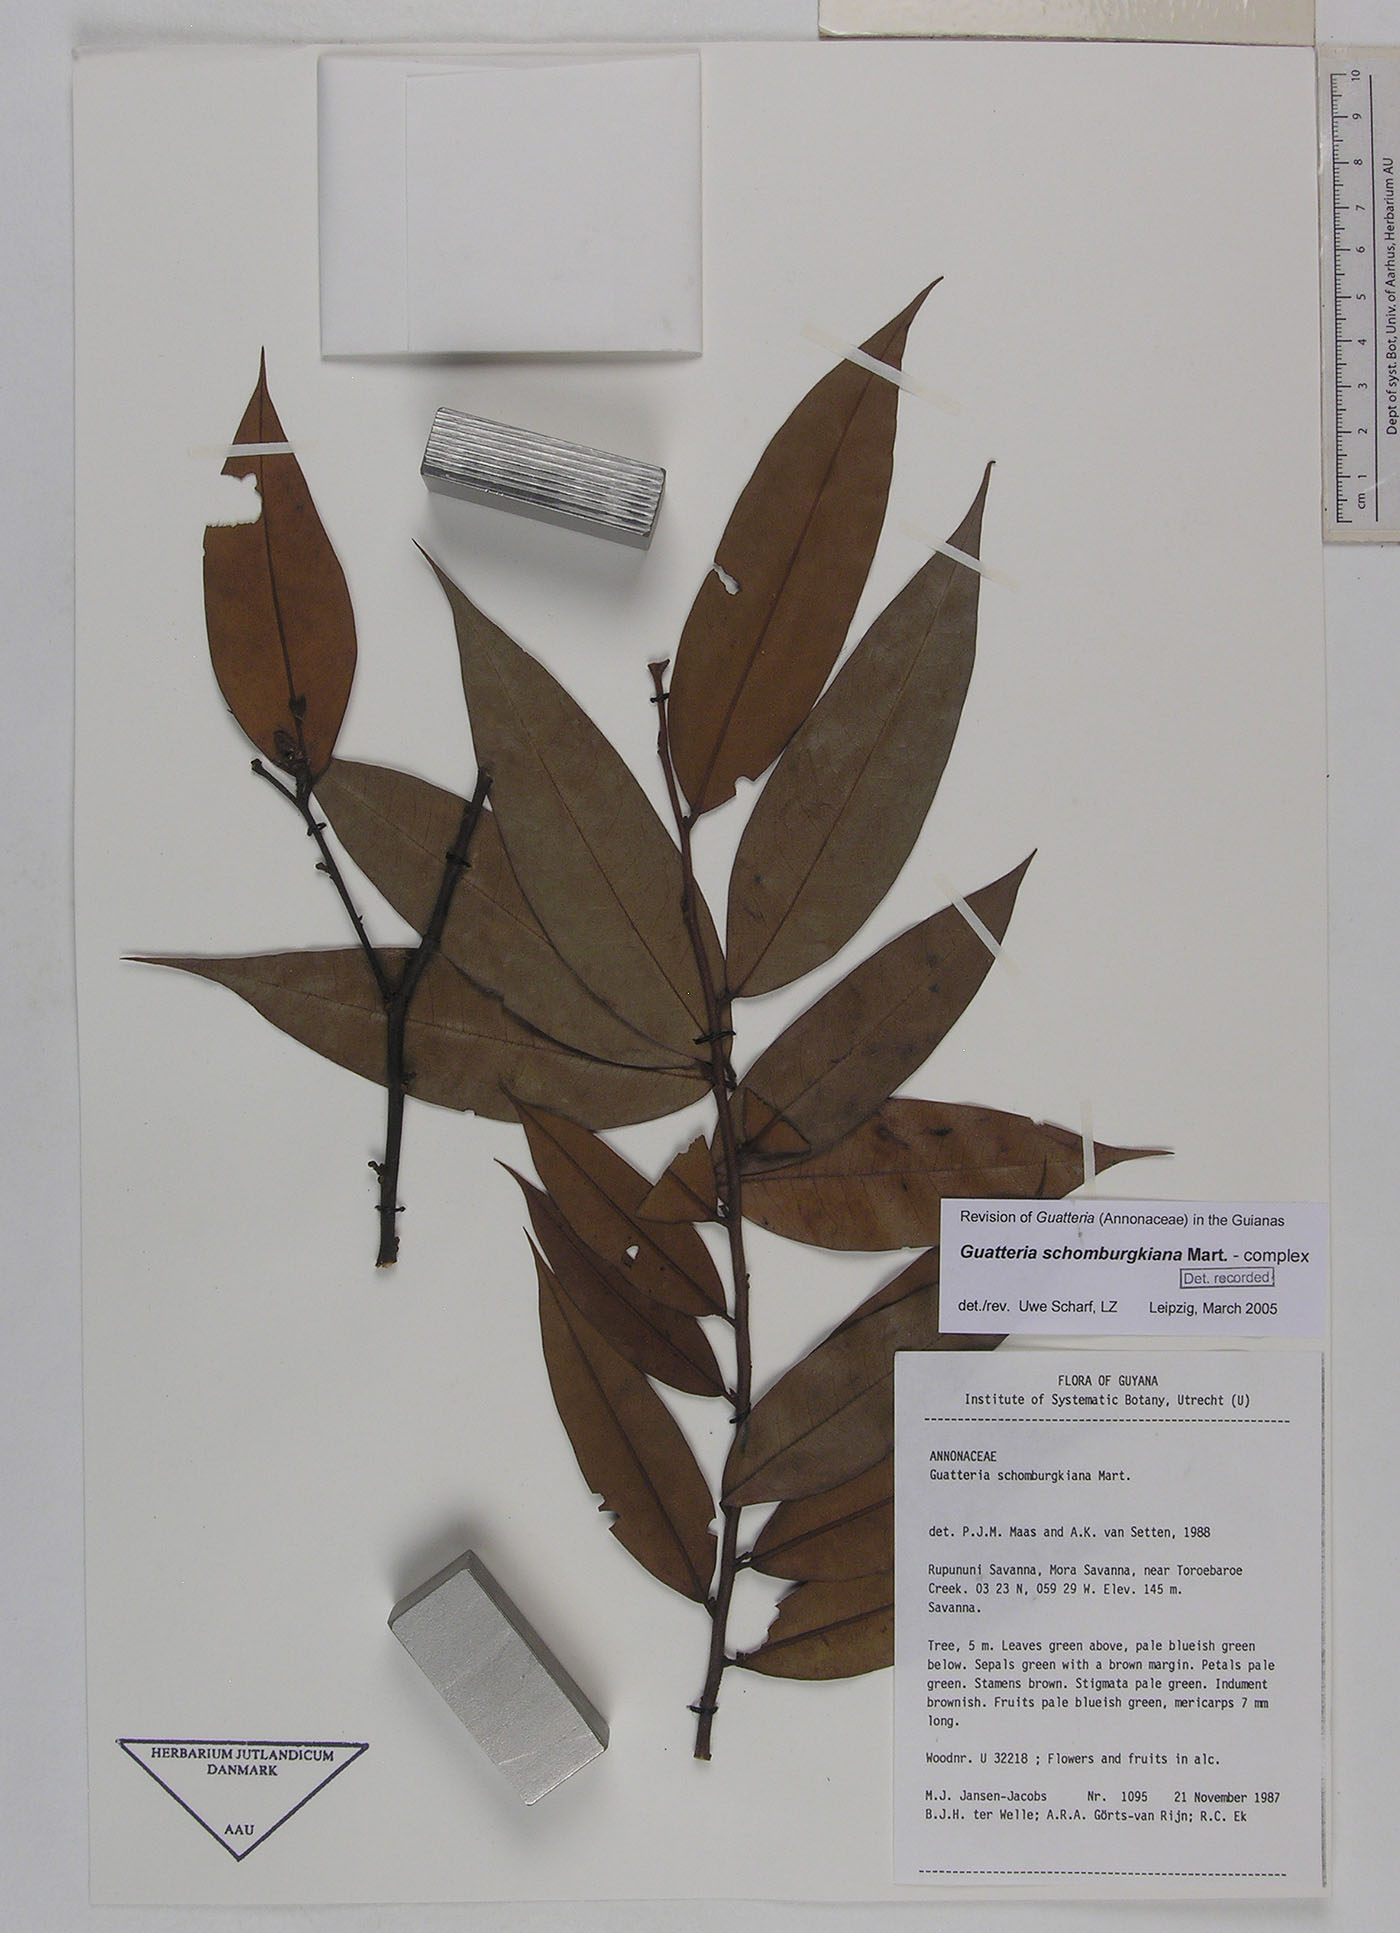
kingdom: Plantae
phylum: Tracheophyta
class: Magnoliopsida
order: Magnoliales
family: Annonaceae
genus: Guatteria
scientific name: Guatteria schomburgkiana
